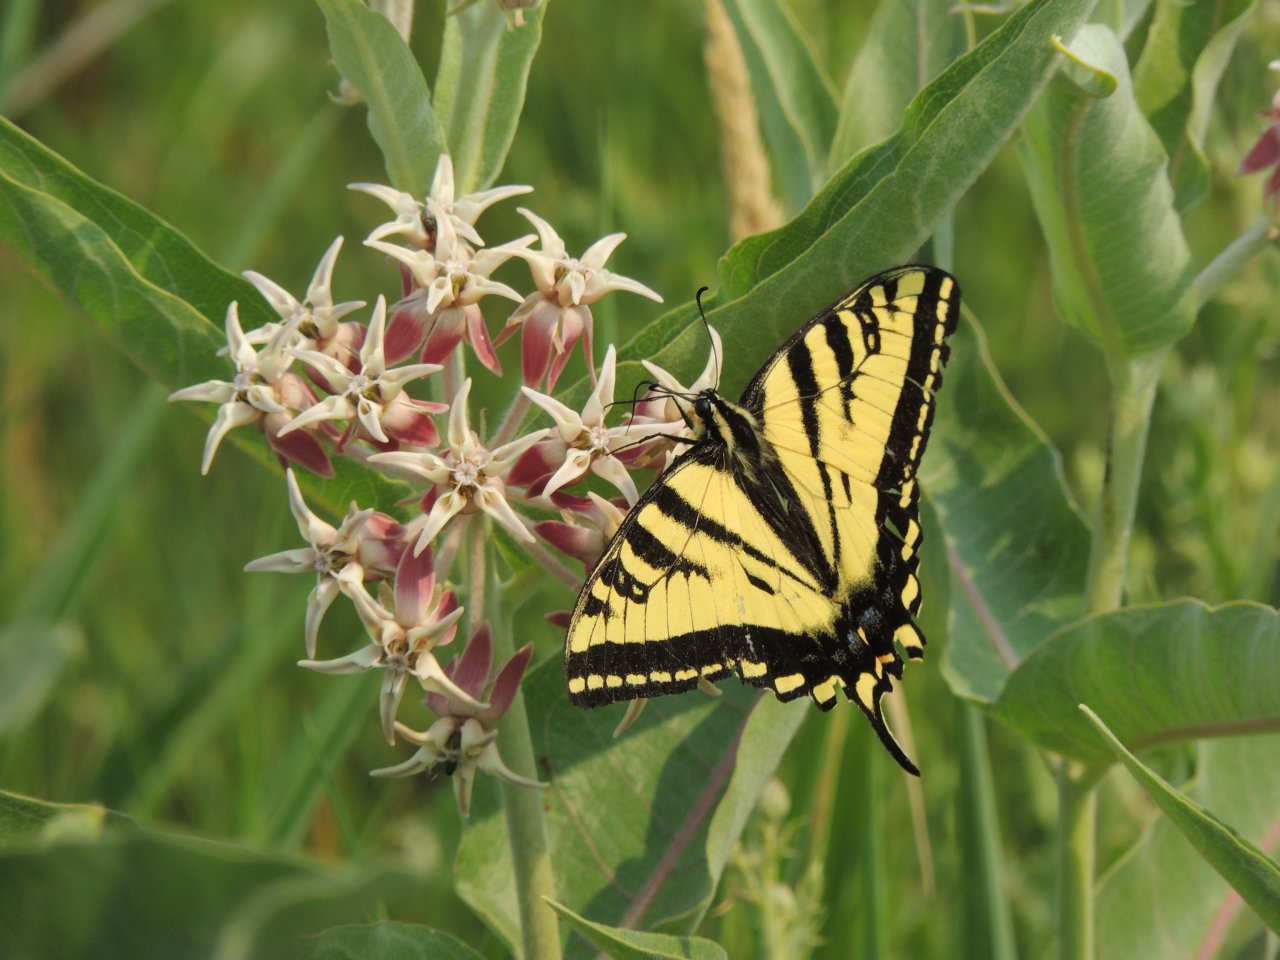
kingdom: Animalia
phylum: Arthropoda
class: Insecta
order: Lepidoptera
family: Papilionidae
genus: Pterourus
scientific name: Pterourus rutulus
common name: Western Tiger Swallowtail
